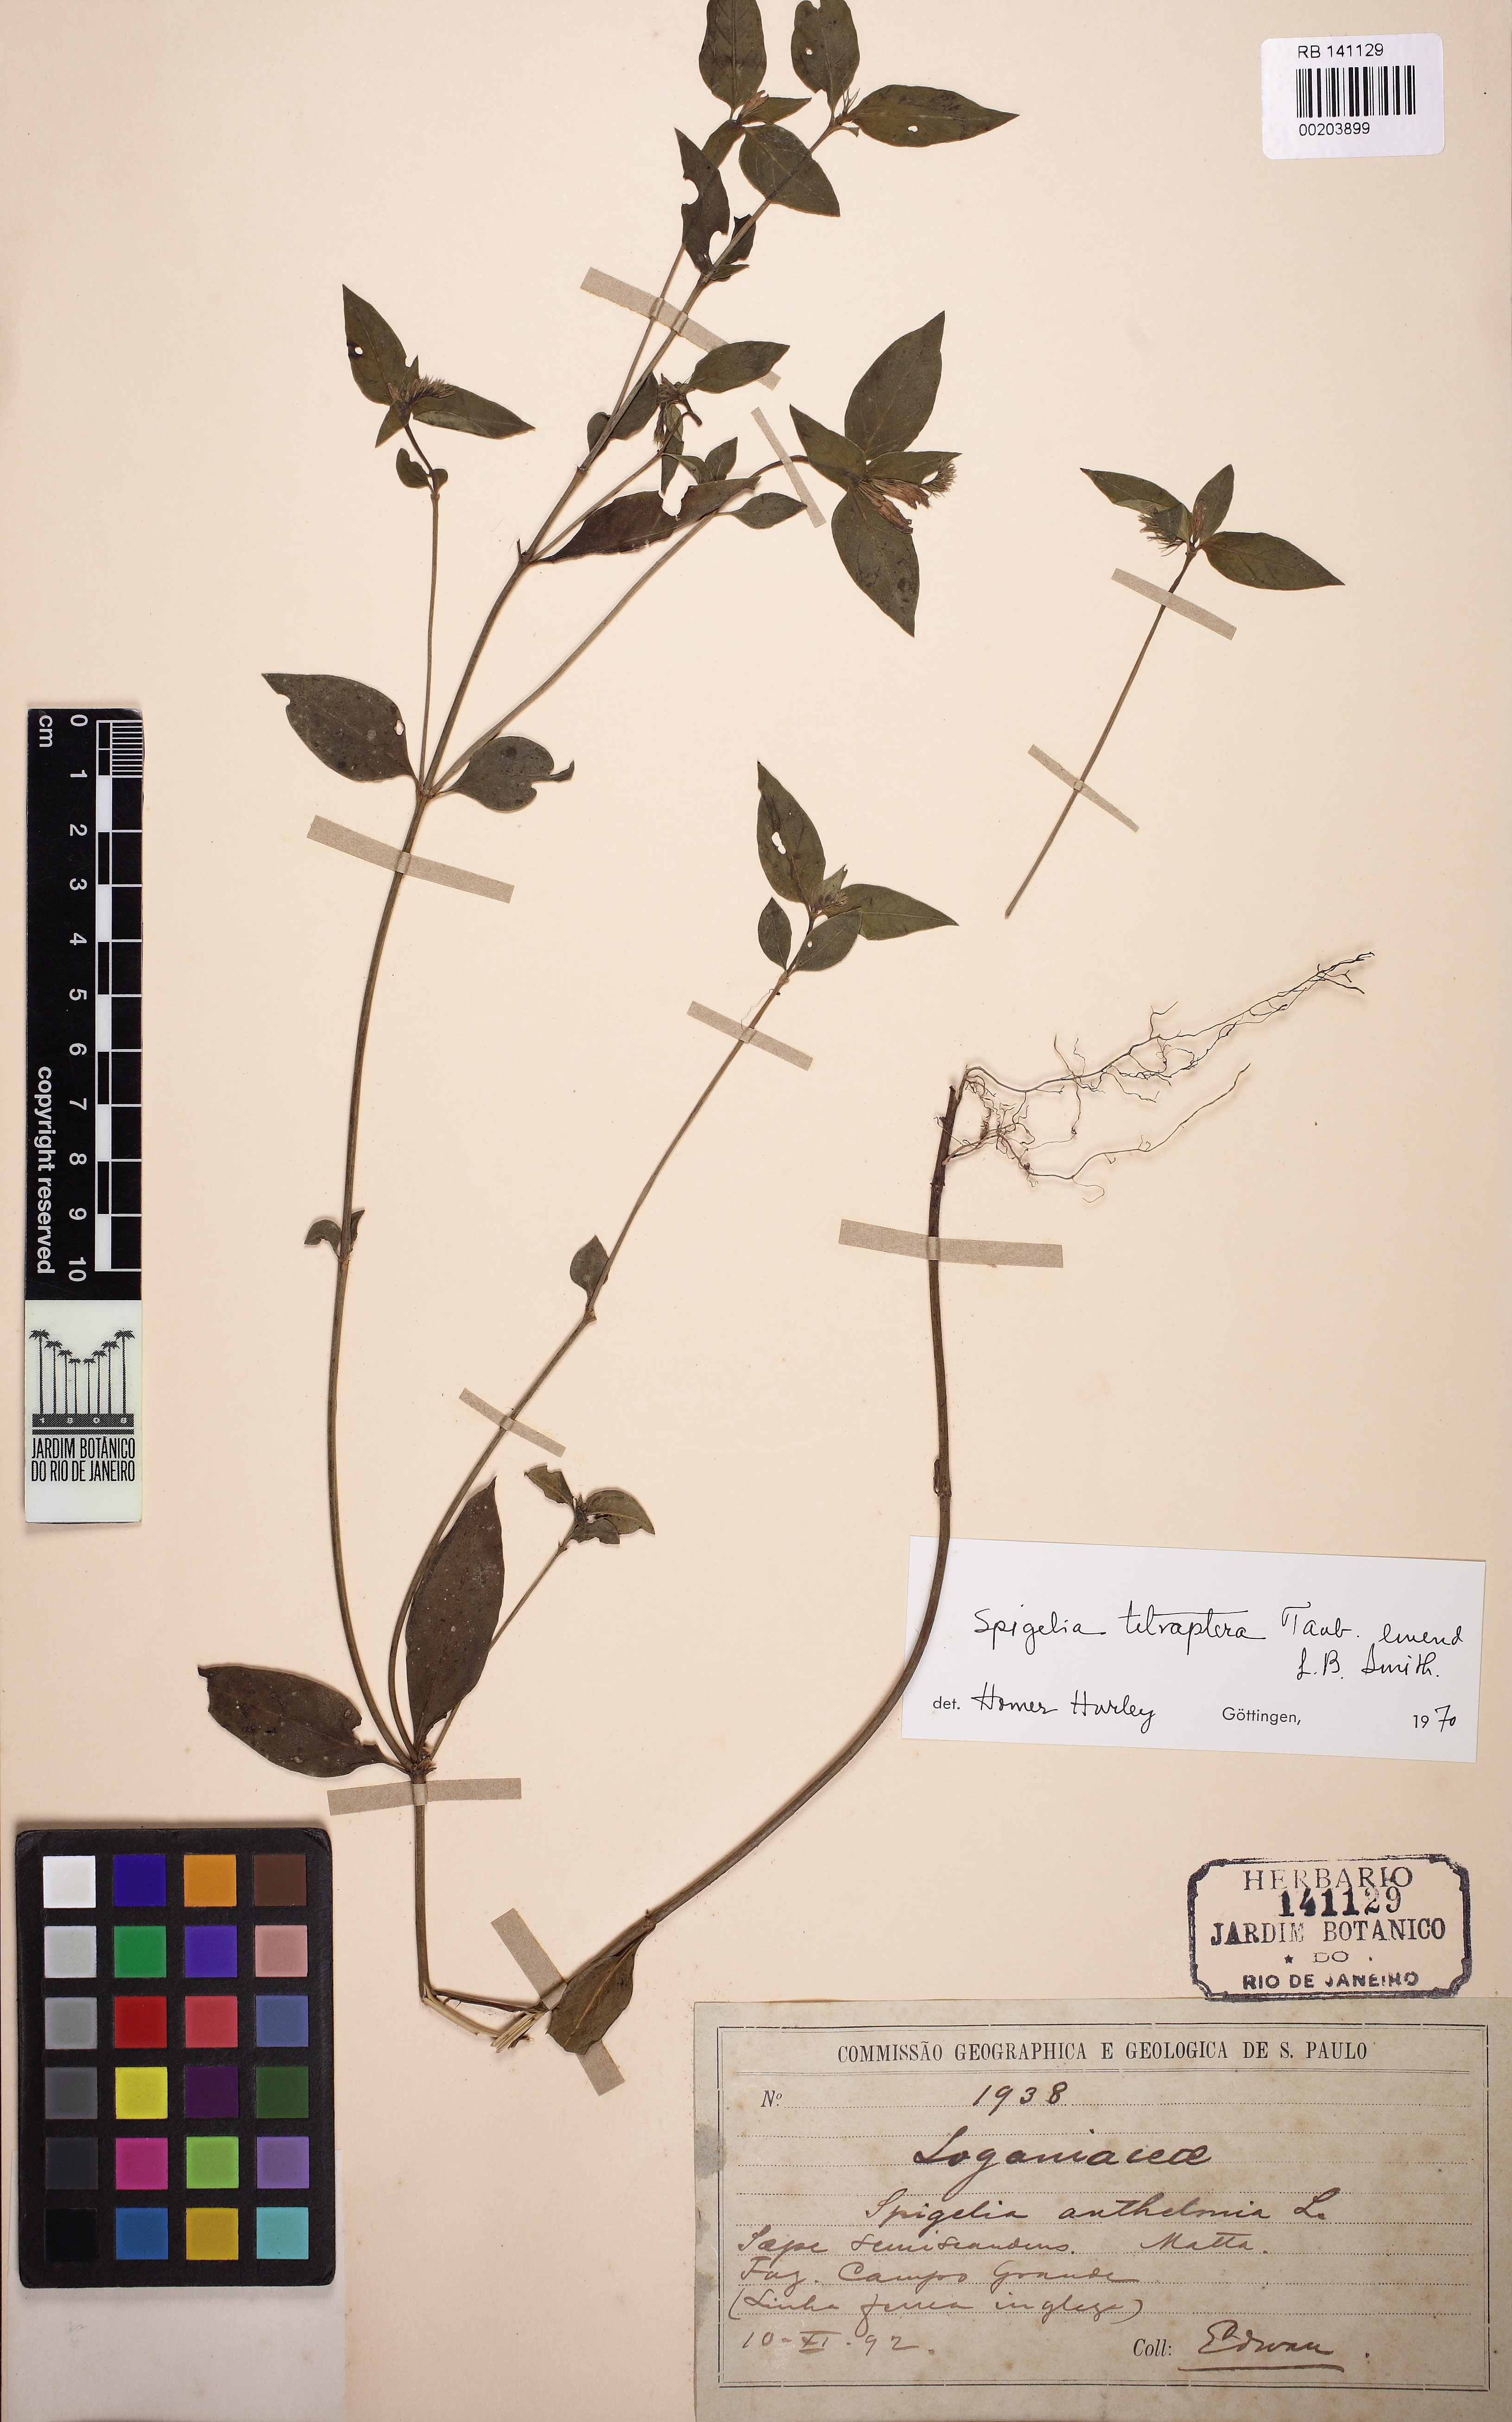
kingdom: Plantae
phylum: Tracheophyta
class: Magnoliopsida
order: Gentianales
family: Loganiaceae
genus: Spigelia
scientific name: Spigelia tetraptera
